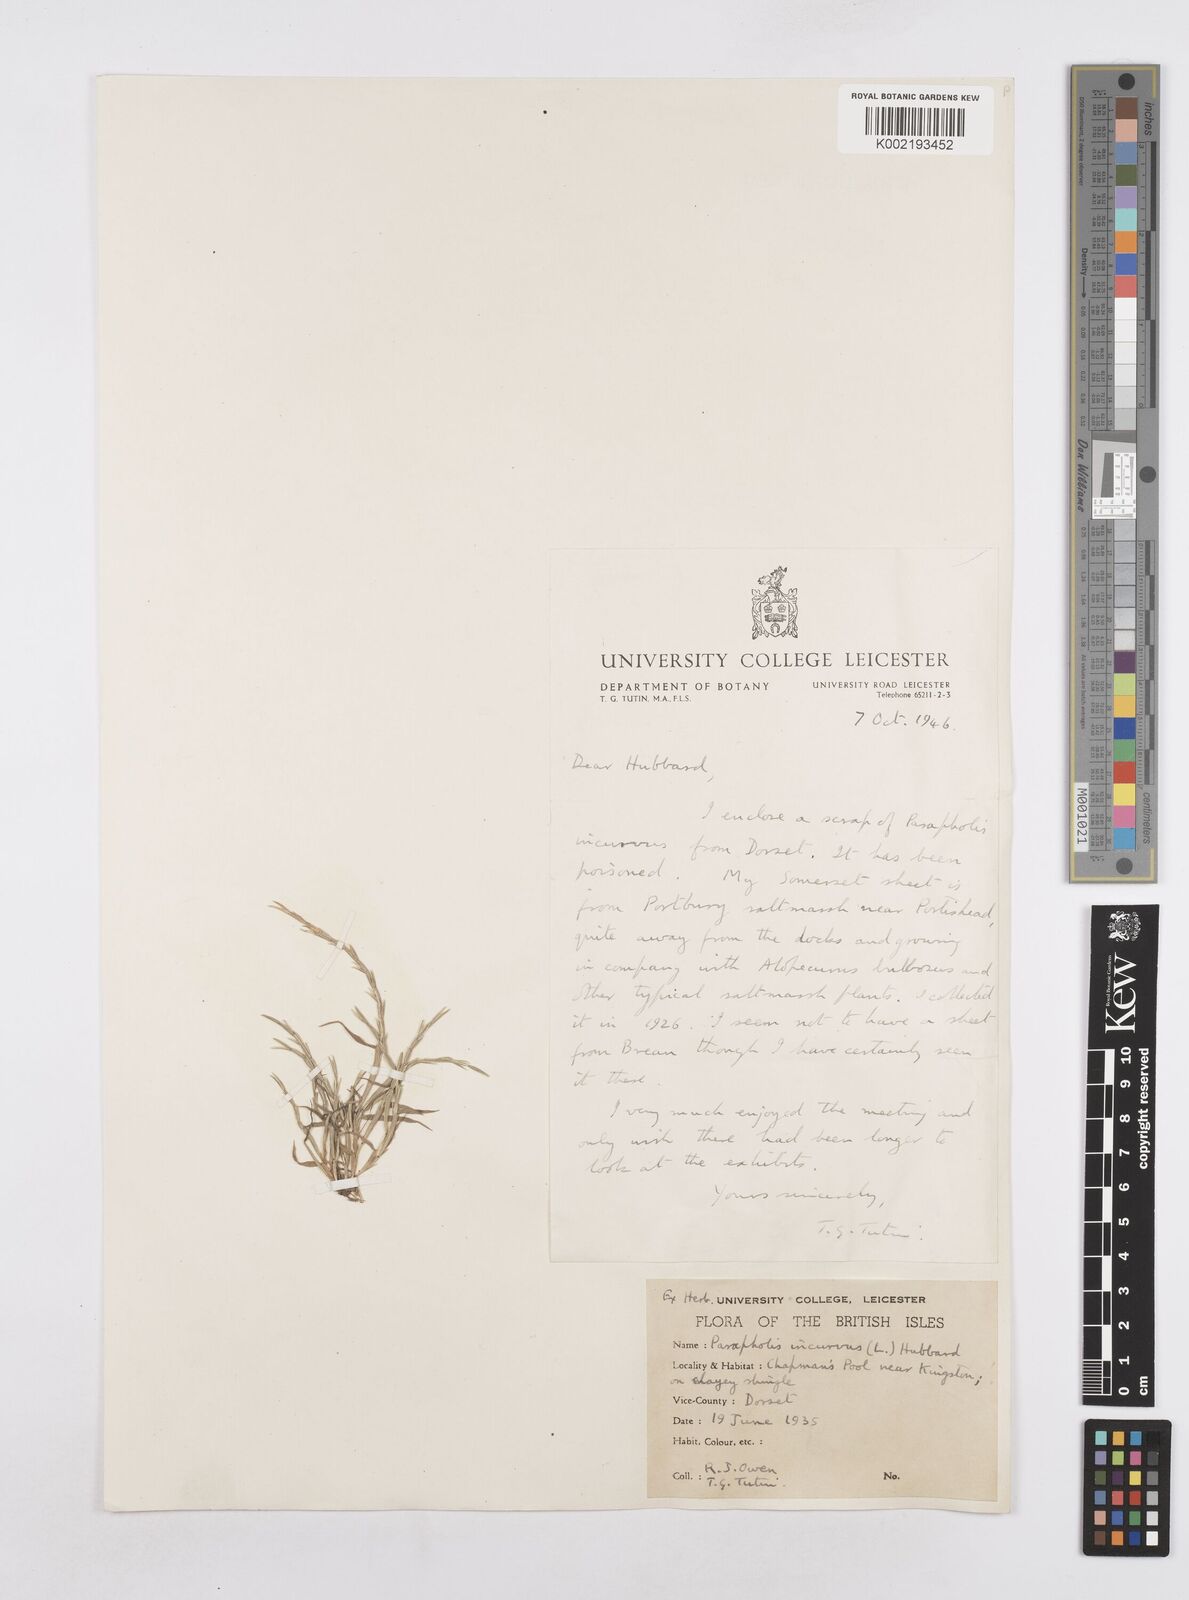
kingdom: Plantae
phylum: Tracheophyta
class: Liliopsida
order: Poales
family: Poaceae
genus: Parapholis
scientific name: Parapholis incurva
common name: Curved sicklegrass
